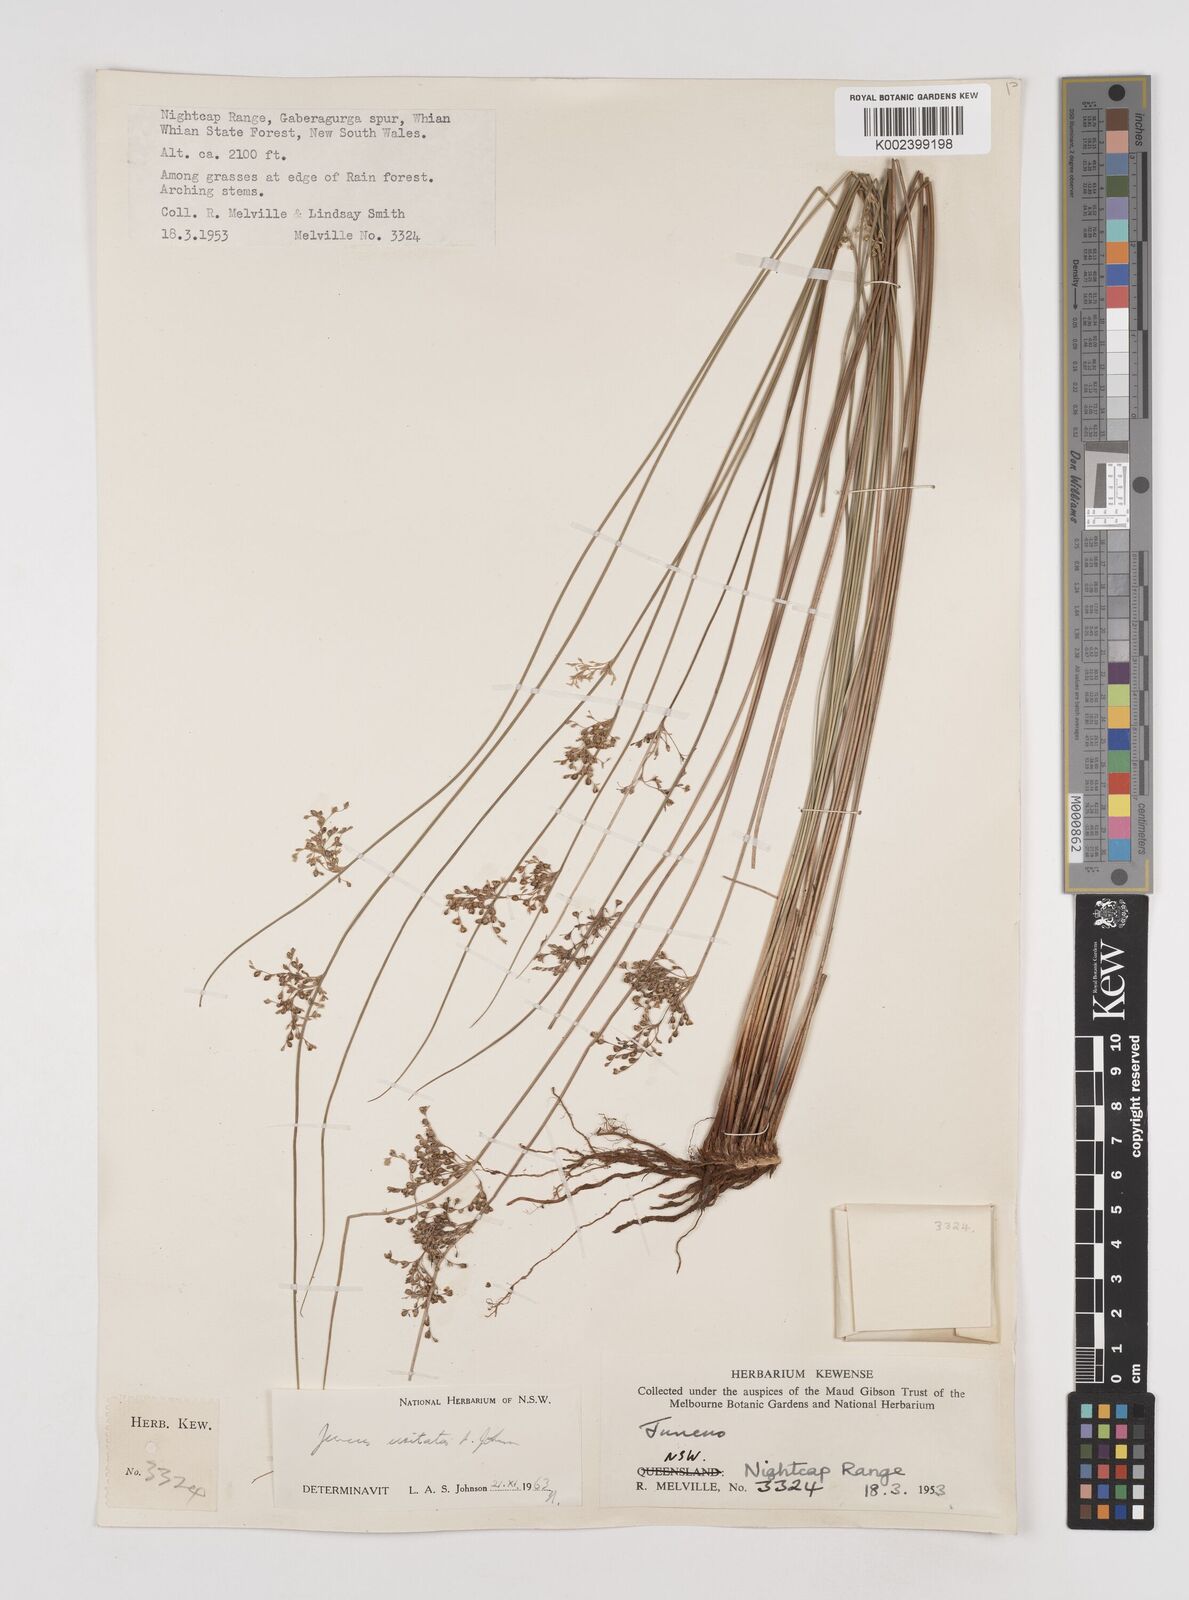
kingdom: Plantae
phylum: Tracheophyta
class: Liliopsida
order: Poales
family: Juncaceae
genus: Juncus
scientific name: Juncus usitatus
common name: Rush
